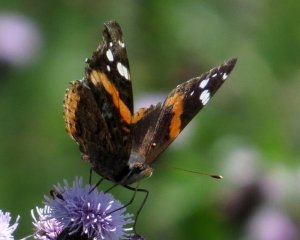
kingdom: Animalia
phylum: Arthropoda
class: Insecta
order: Lepidoptera
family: Nymphalidae
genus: Vanessa
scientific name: Vanessa atalanta
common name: Red Admiral
